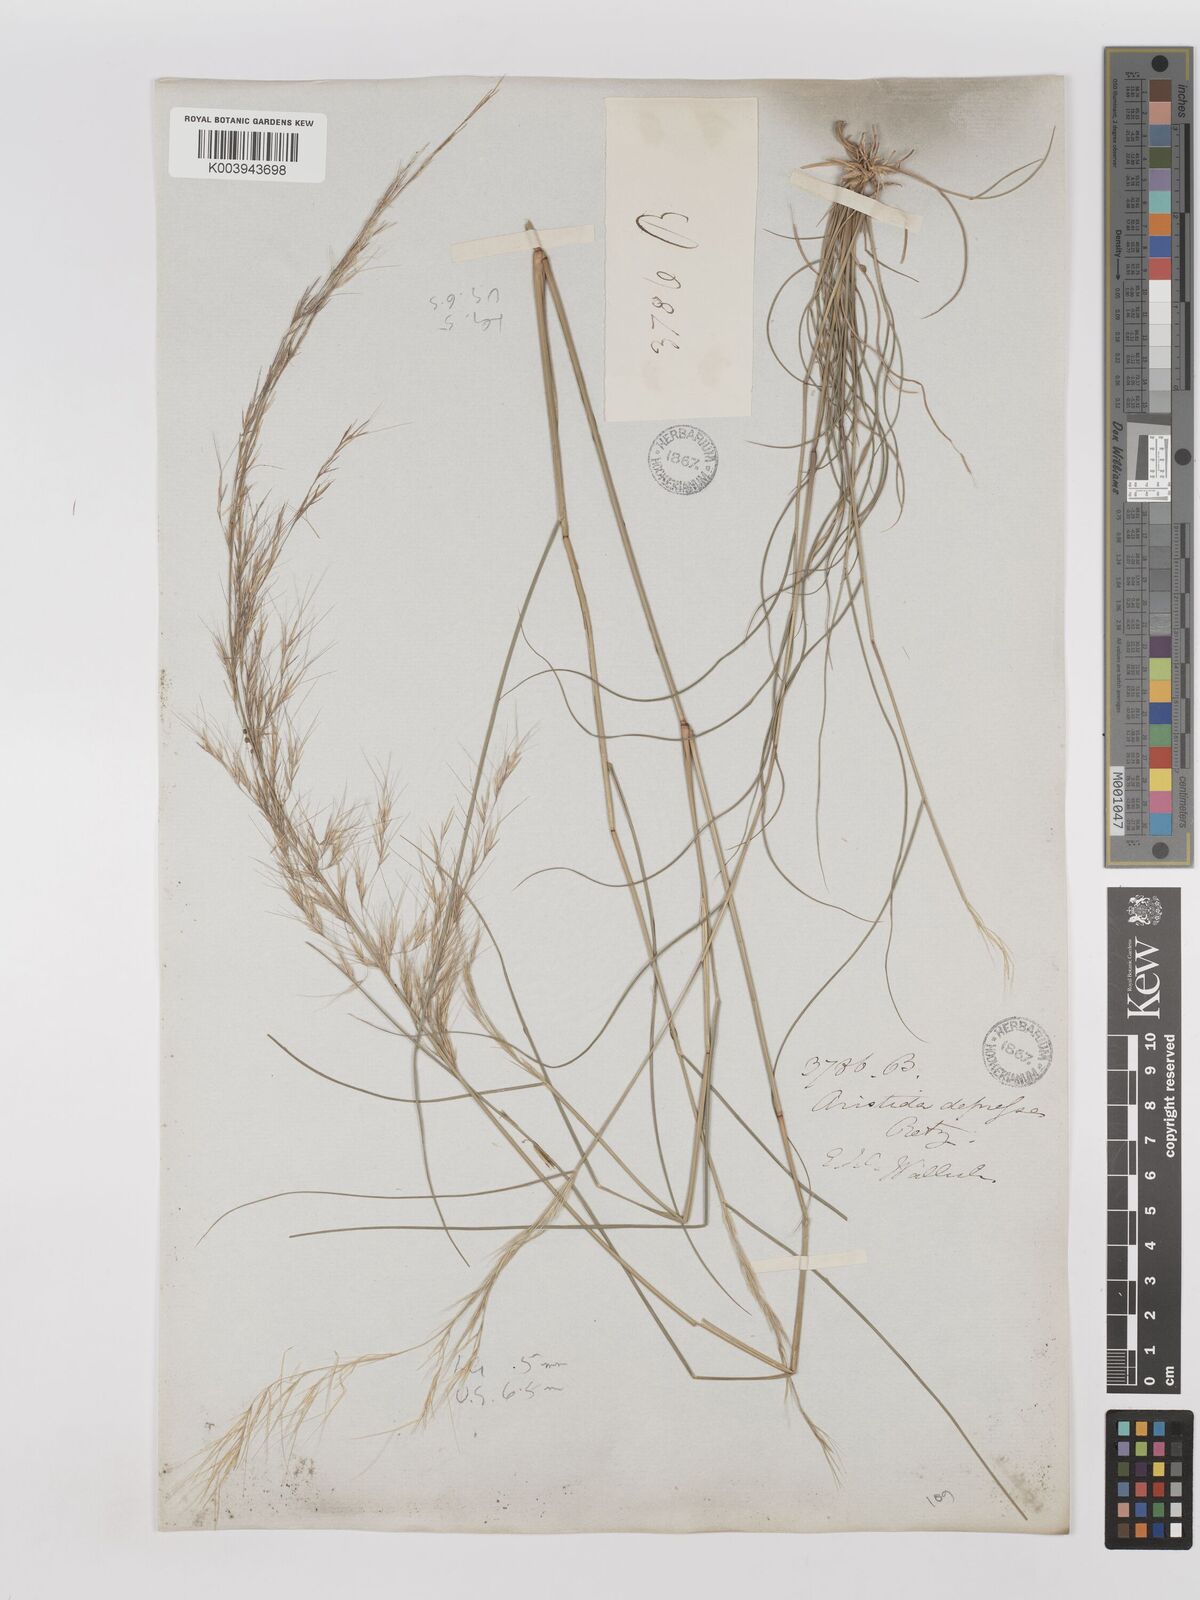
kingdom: Plantae
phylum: Tracheophyta
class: Liliopsida
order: Poales
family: Poaceae
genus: Aristida
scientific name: Aristida adscensionis
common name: Sixweeks threeawn
